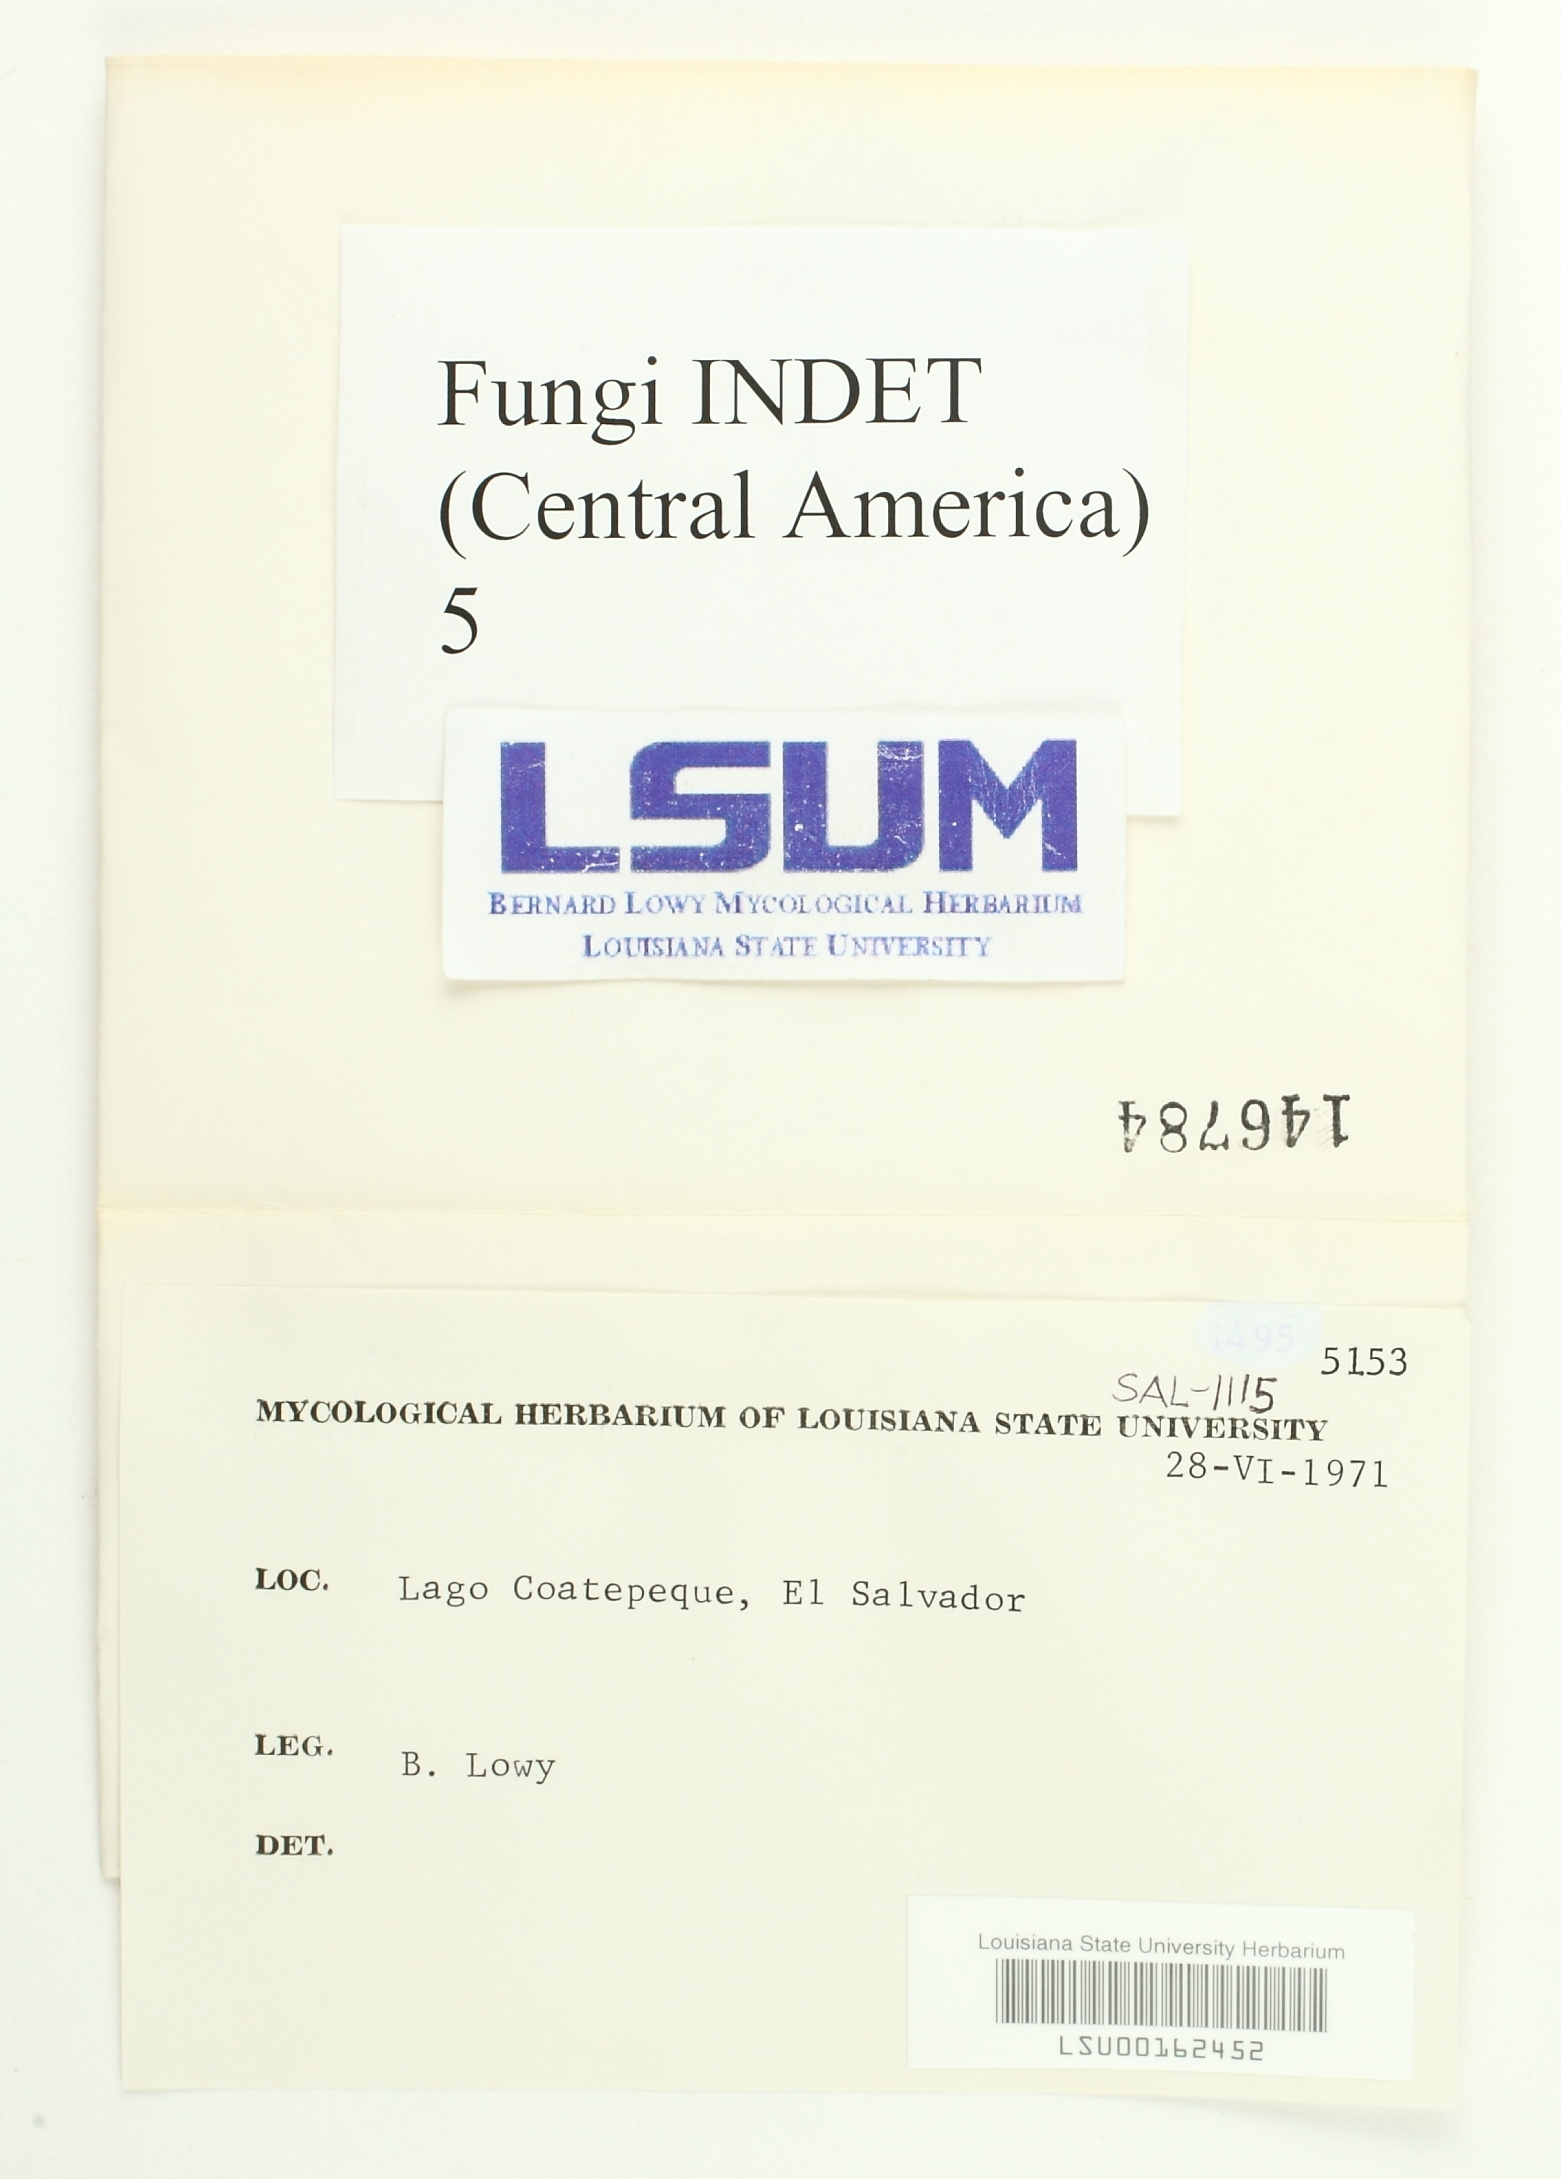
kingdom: Fungi
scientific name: Fungi
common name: Fungi
